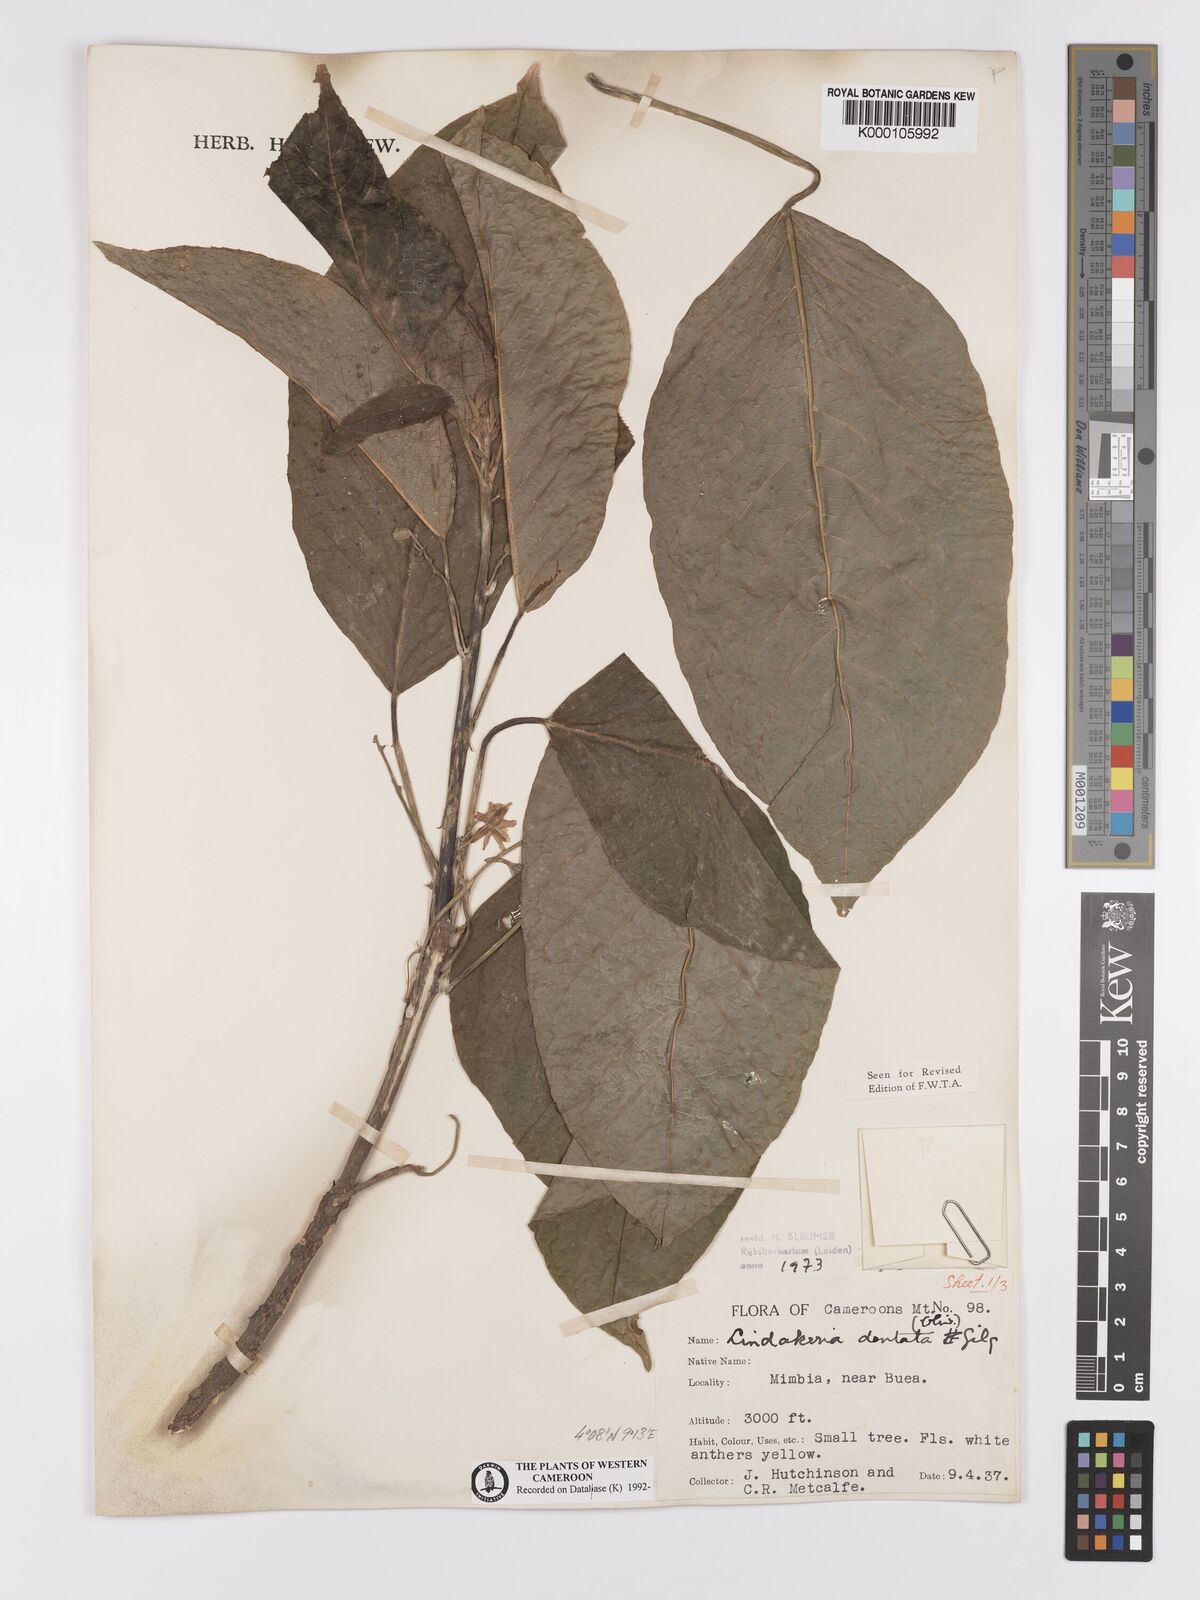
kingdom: Plantae
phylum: Tracheophyta
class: Magnoliopsida
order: Malpighiales
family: Achariaceae
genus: Lindackeria
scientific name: Lindackeria dentata
